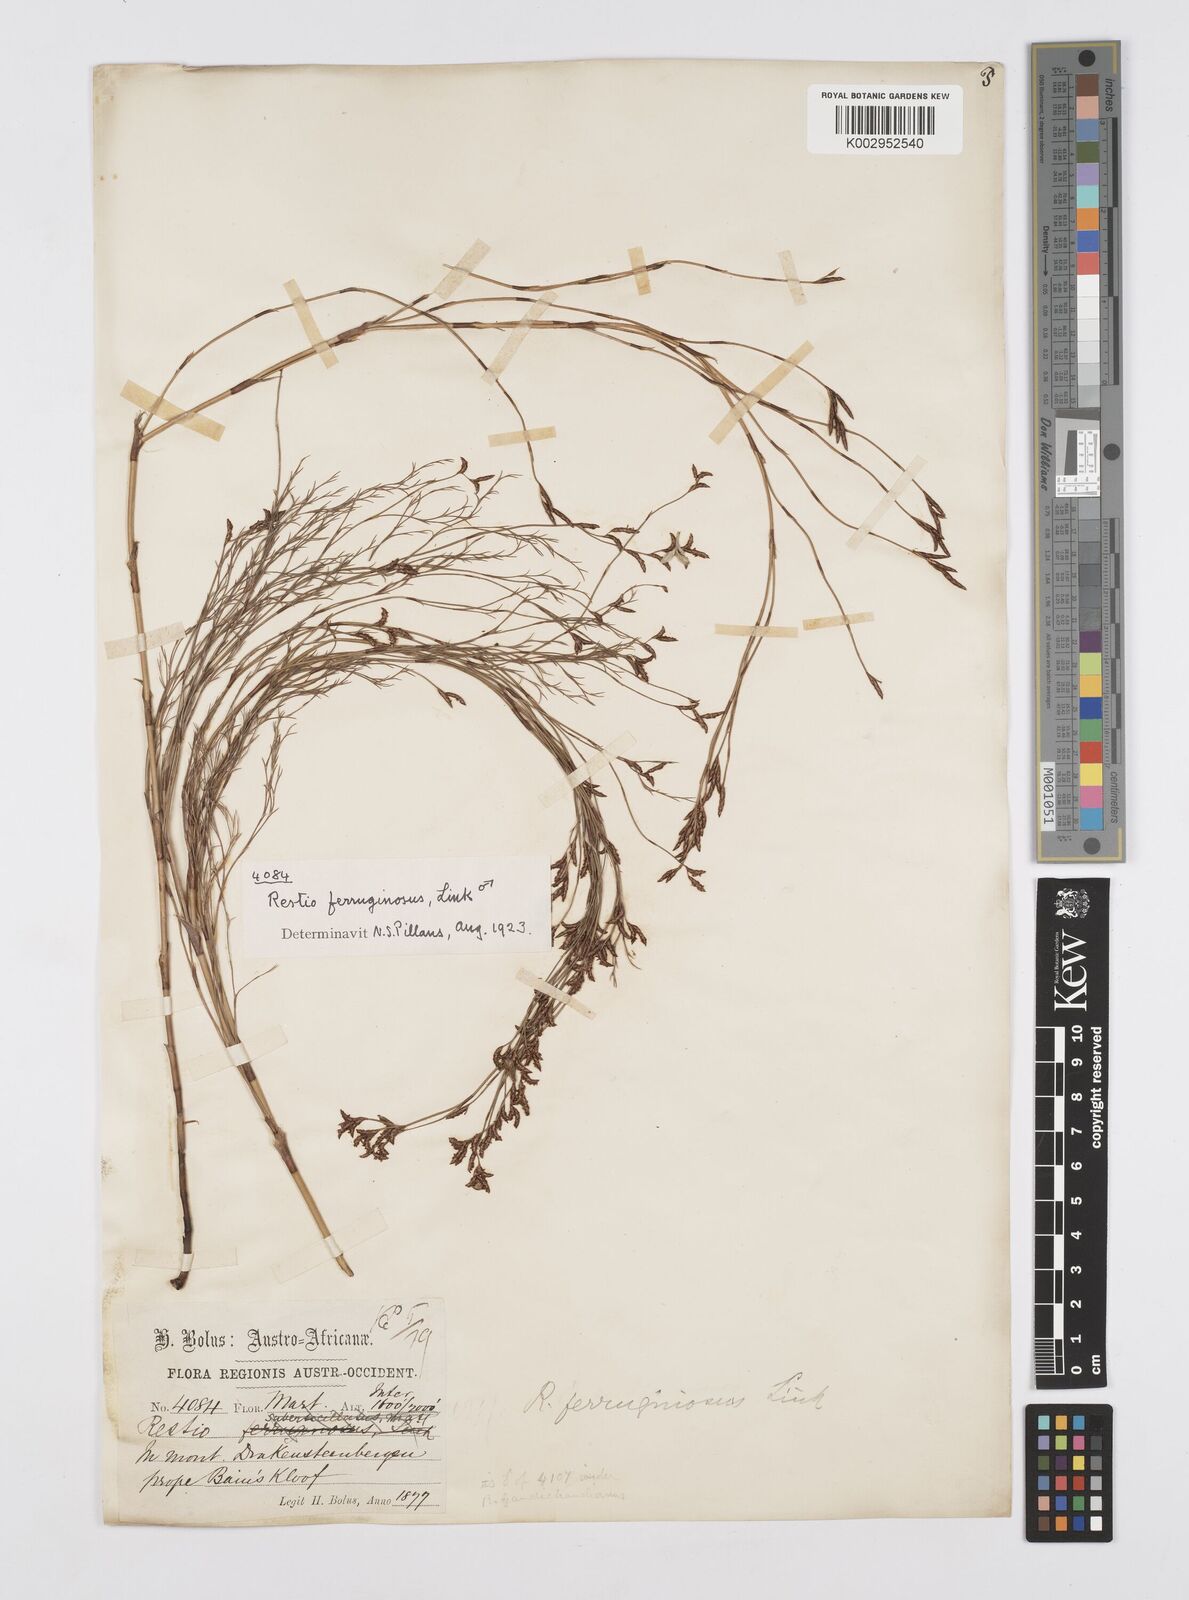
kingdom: Plantae
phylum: Tracheophyta
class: Liliopsida
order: Poales
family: Restionaceae
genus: Restio
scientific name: Restio gaudichaudianus
